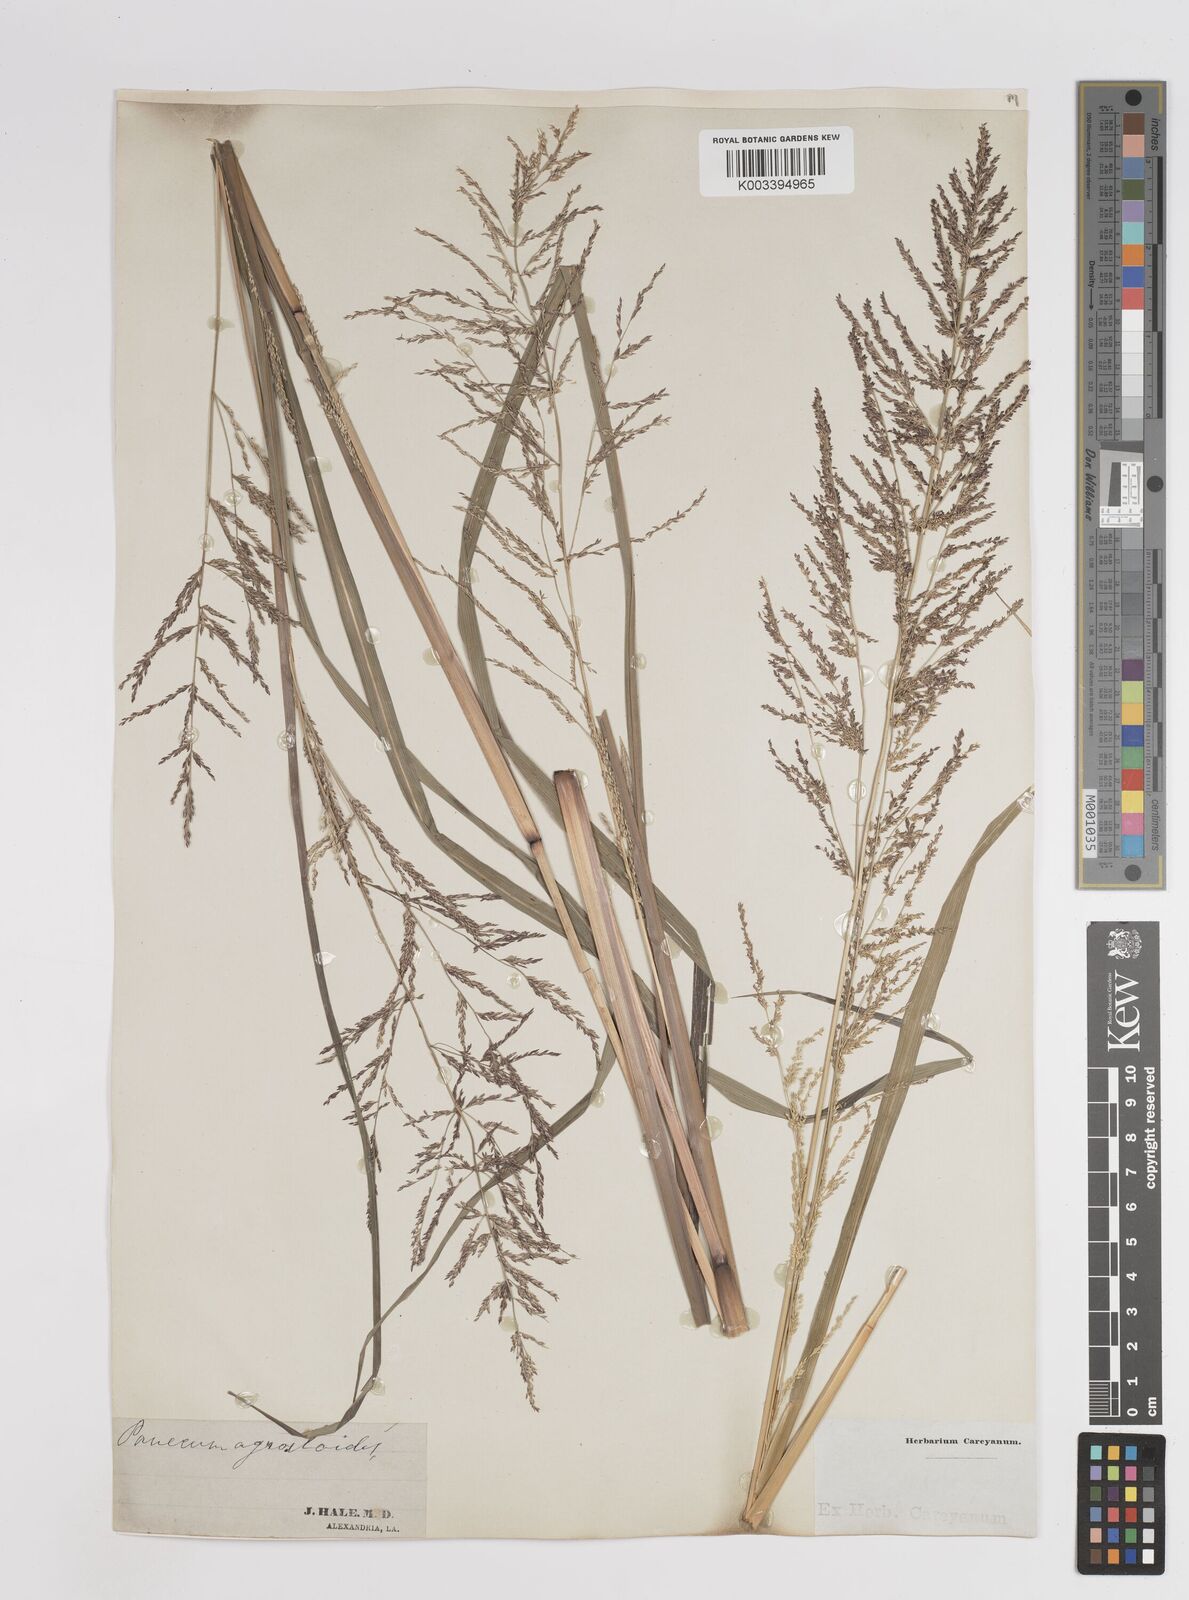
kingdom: Plantae
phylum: Tracheophyta
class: Liliopsida
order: Poales
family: Poaceae
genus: Steinchisma
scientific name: Steinchisma laxum
